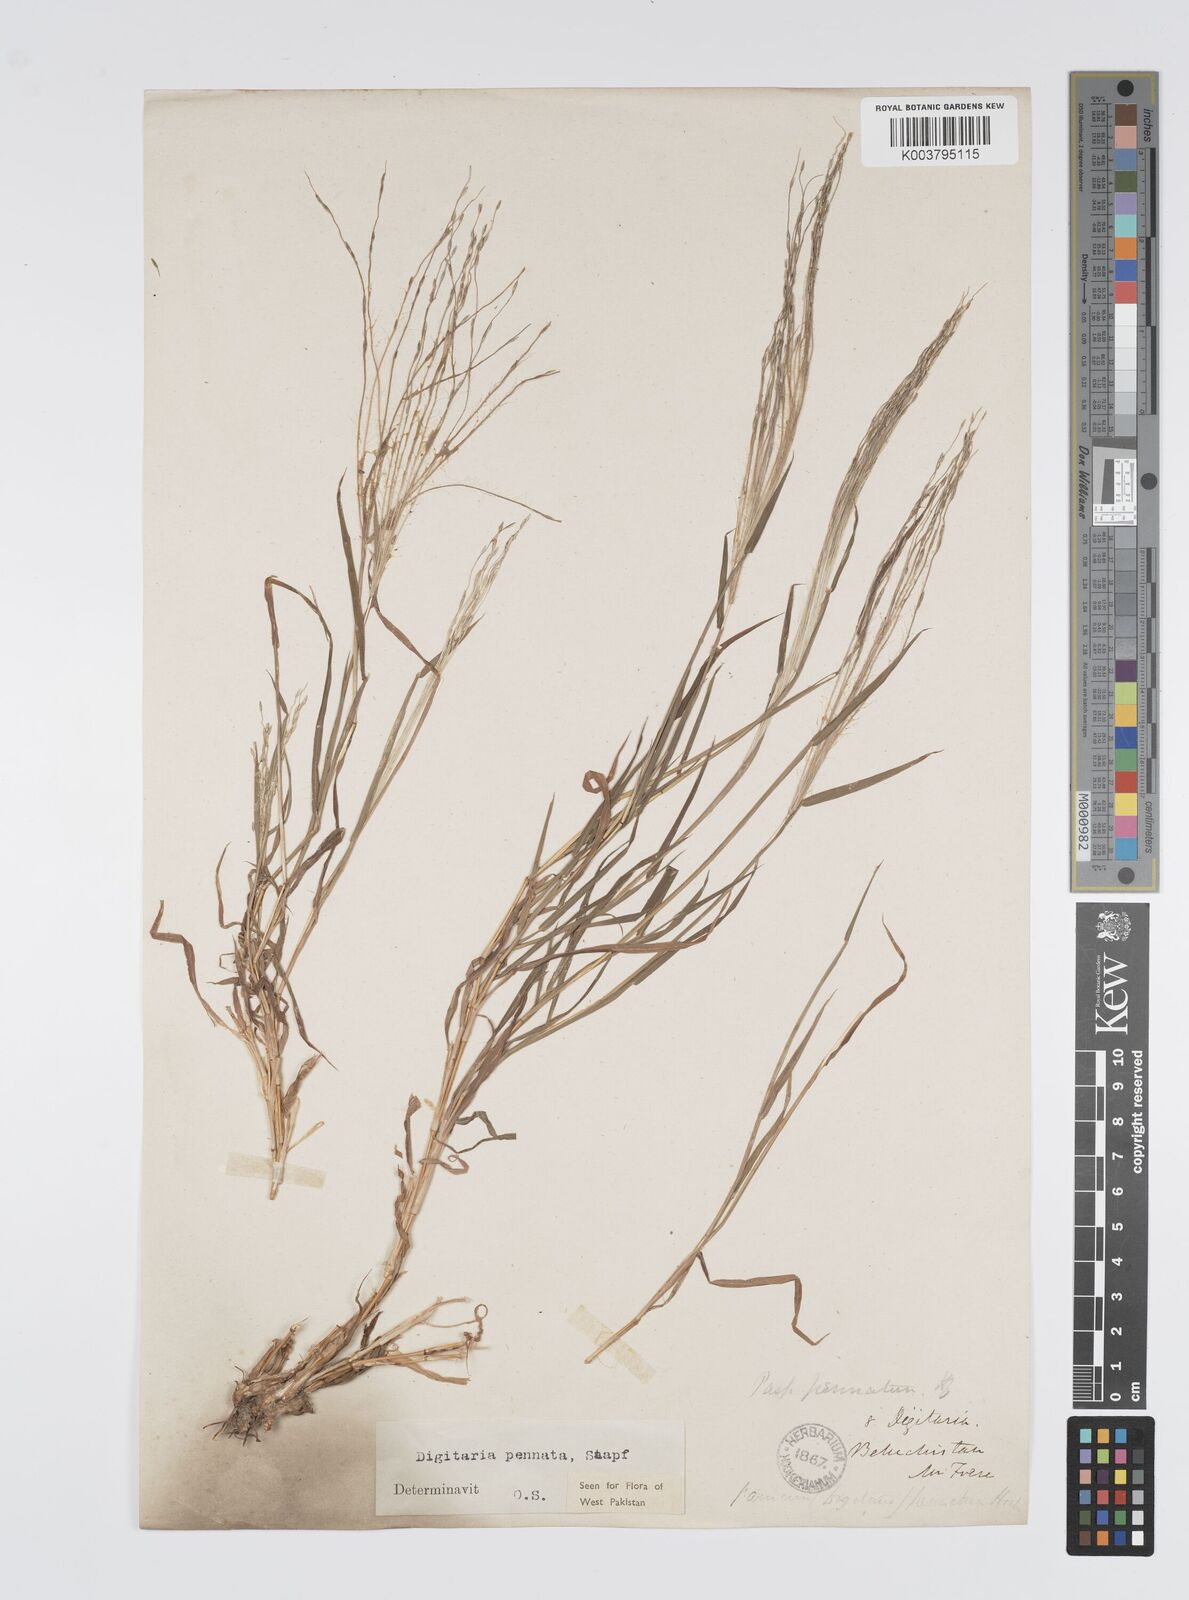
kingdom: Plantae
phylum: Tracheophyta
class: Liliopsida
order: Poales
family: Poaceae
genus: Digitaria
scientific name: Digitaria pennata
